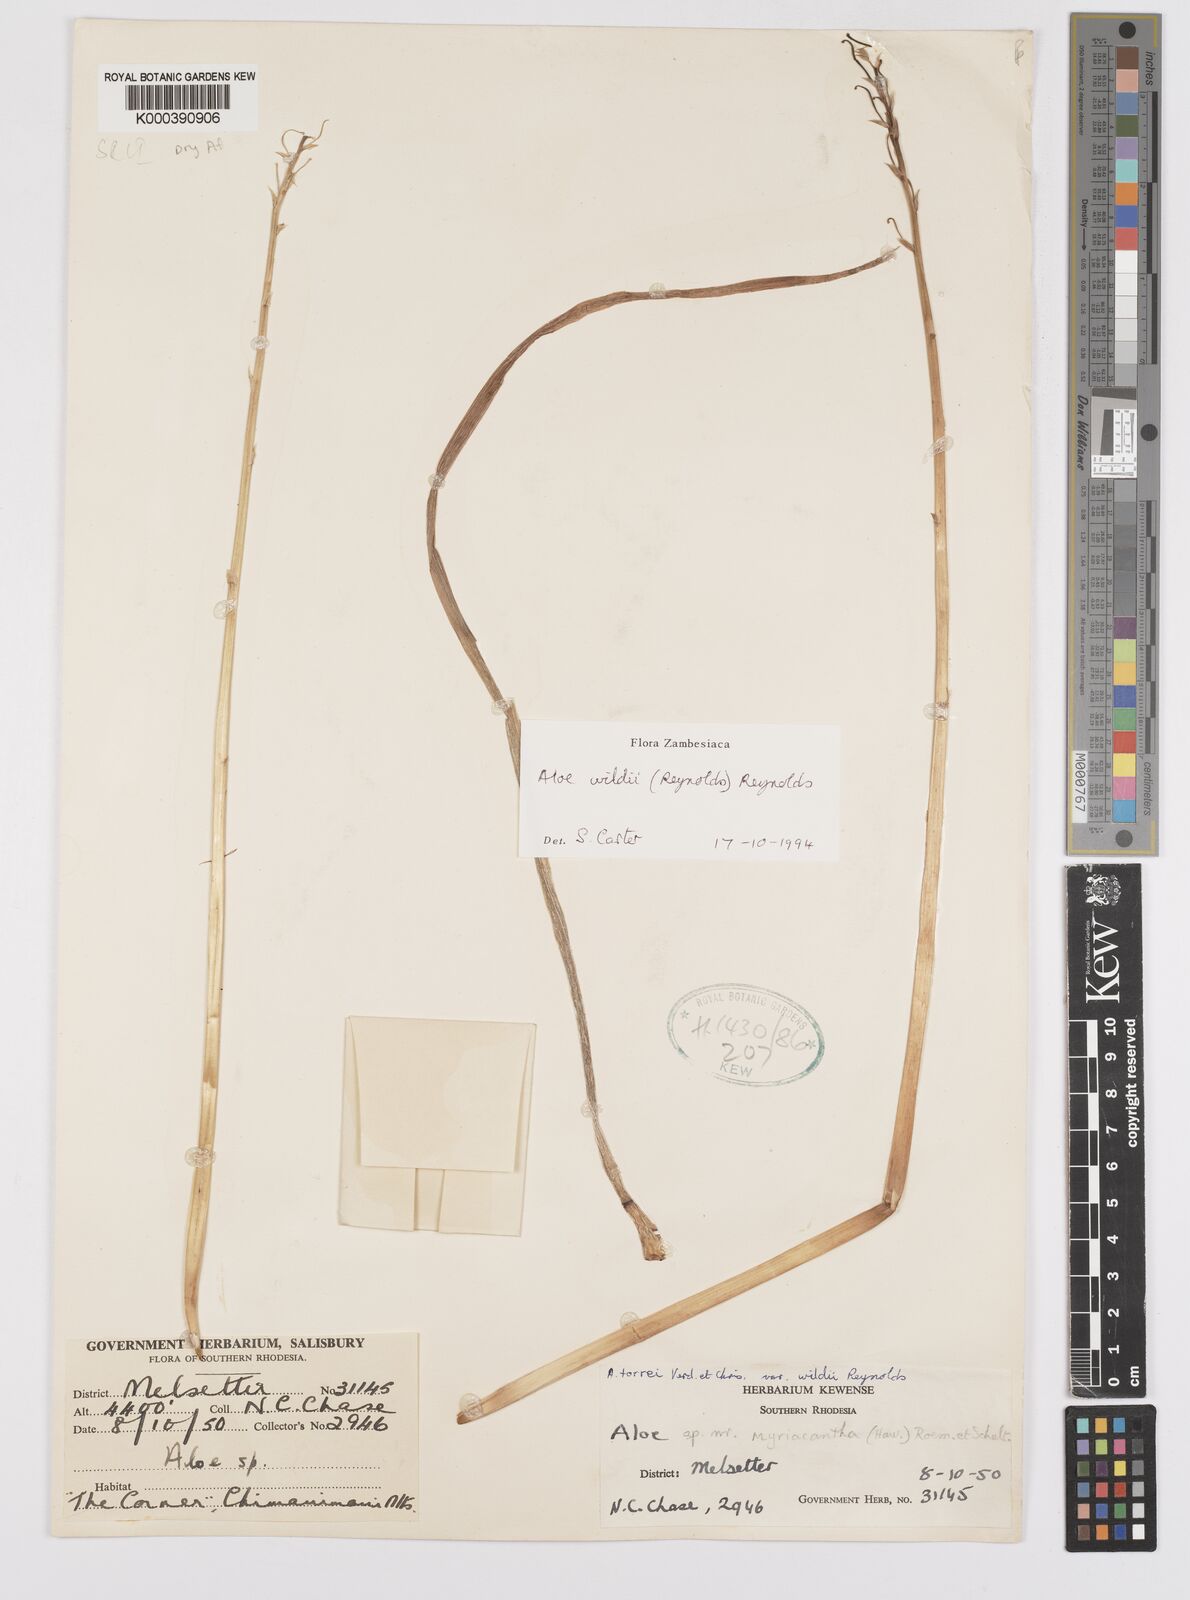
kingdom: Plantae
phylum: Tracheophyta
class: Liliopsida
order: Asparagales
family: Asphodelaceae
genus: Aloe
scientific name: Aloe wildii
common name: Wild's small chimanimani aloe
